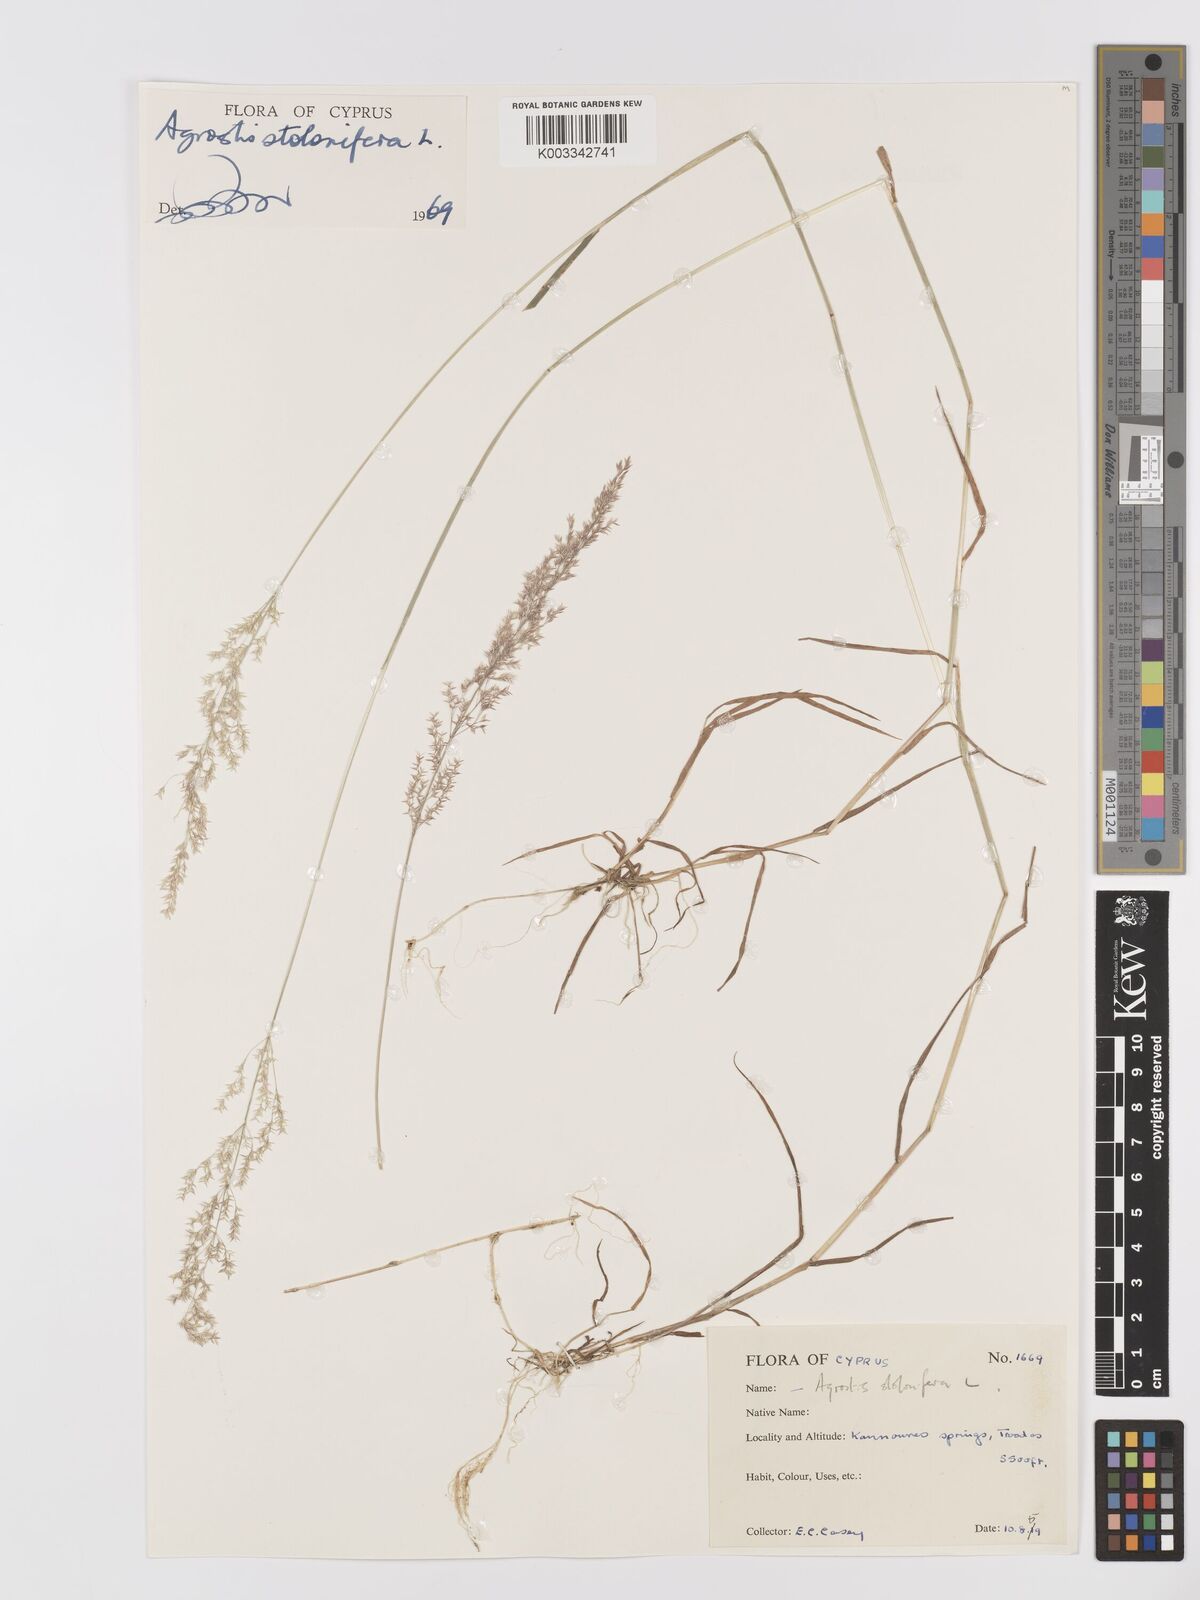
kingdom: Plantae
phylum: Tracheophyta
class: Liliopsida
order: Poales
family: Poaceae
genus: Agrostis
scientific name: Agrostis stolonifera
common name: Creeping bentgrass
